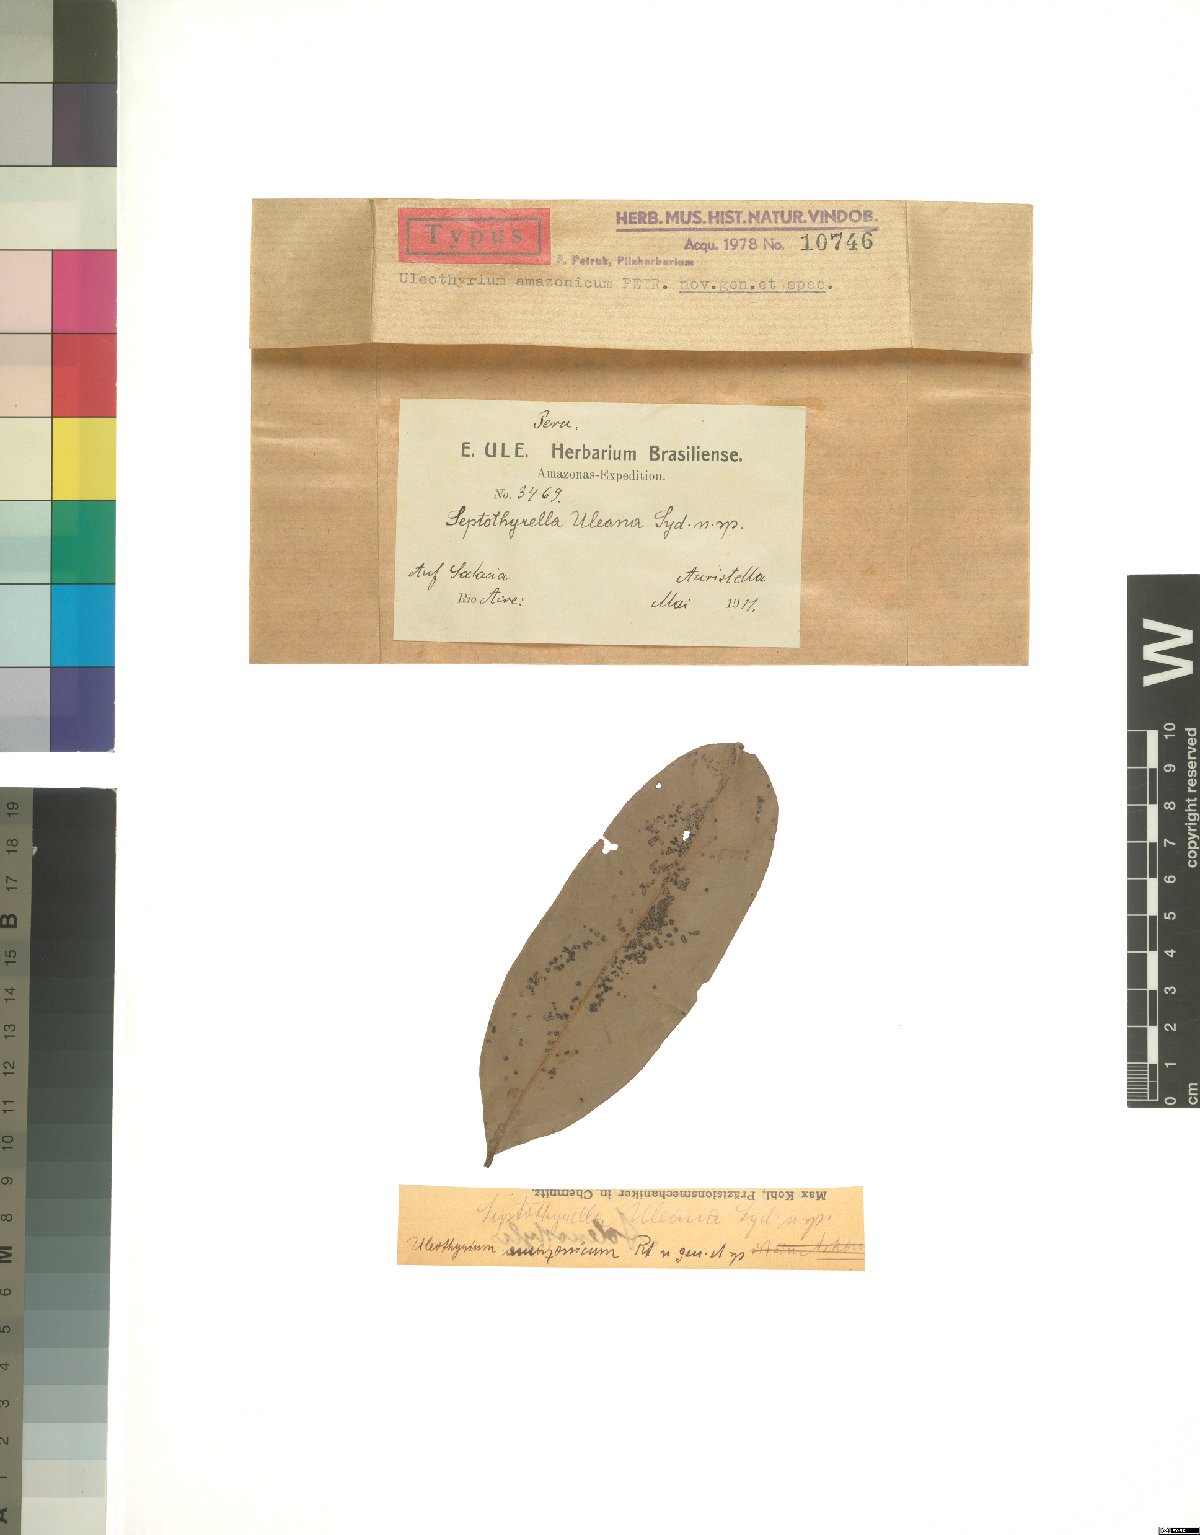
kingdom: Fungi
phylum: Ascomycota
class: Dothideomycetes
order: Asterinales
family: Asterinaceae
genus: Uleothyrium
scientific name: Uleothyrium amazonicum
